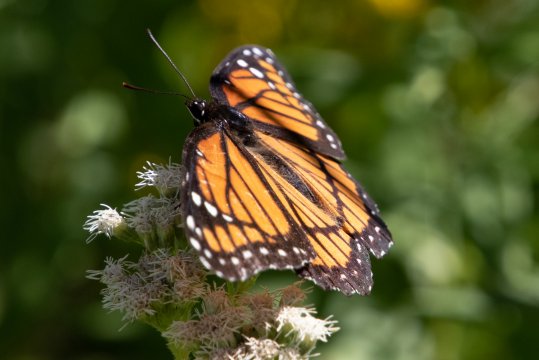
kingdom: Animalia
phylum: Arthropoda
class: Insecta
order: Lepidoptera
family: Nymphalidae
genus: Limenitis
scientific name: Limenitis archippus
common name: Viceroy
